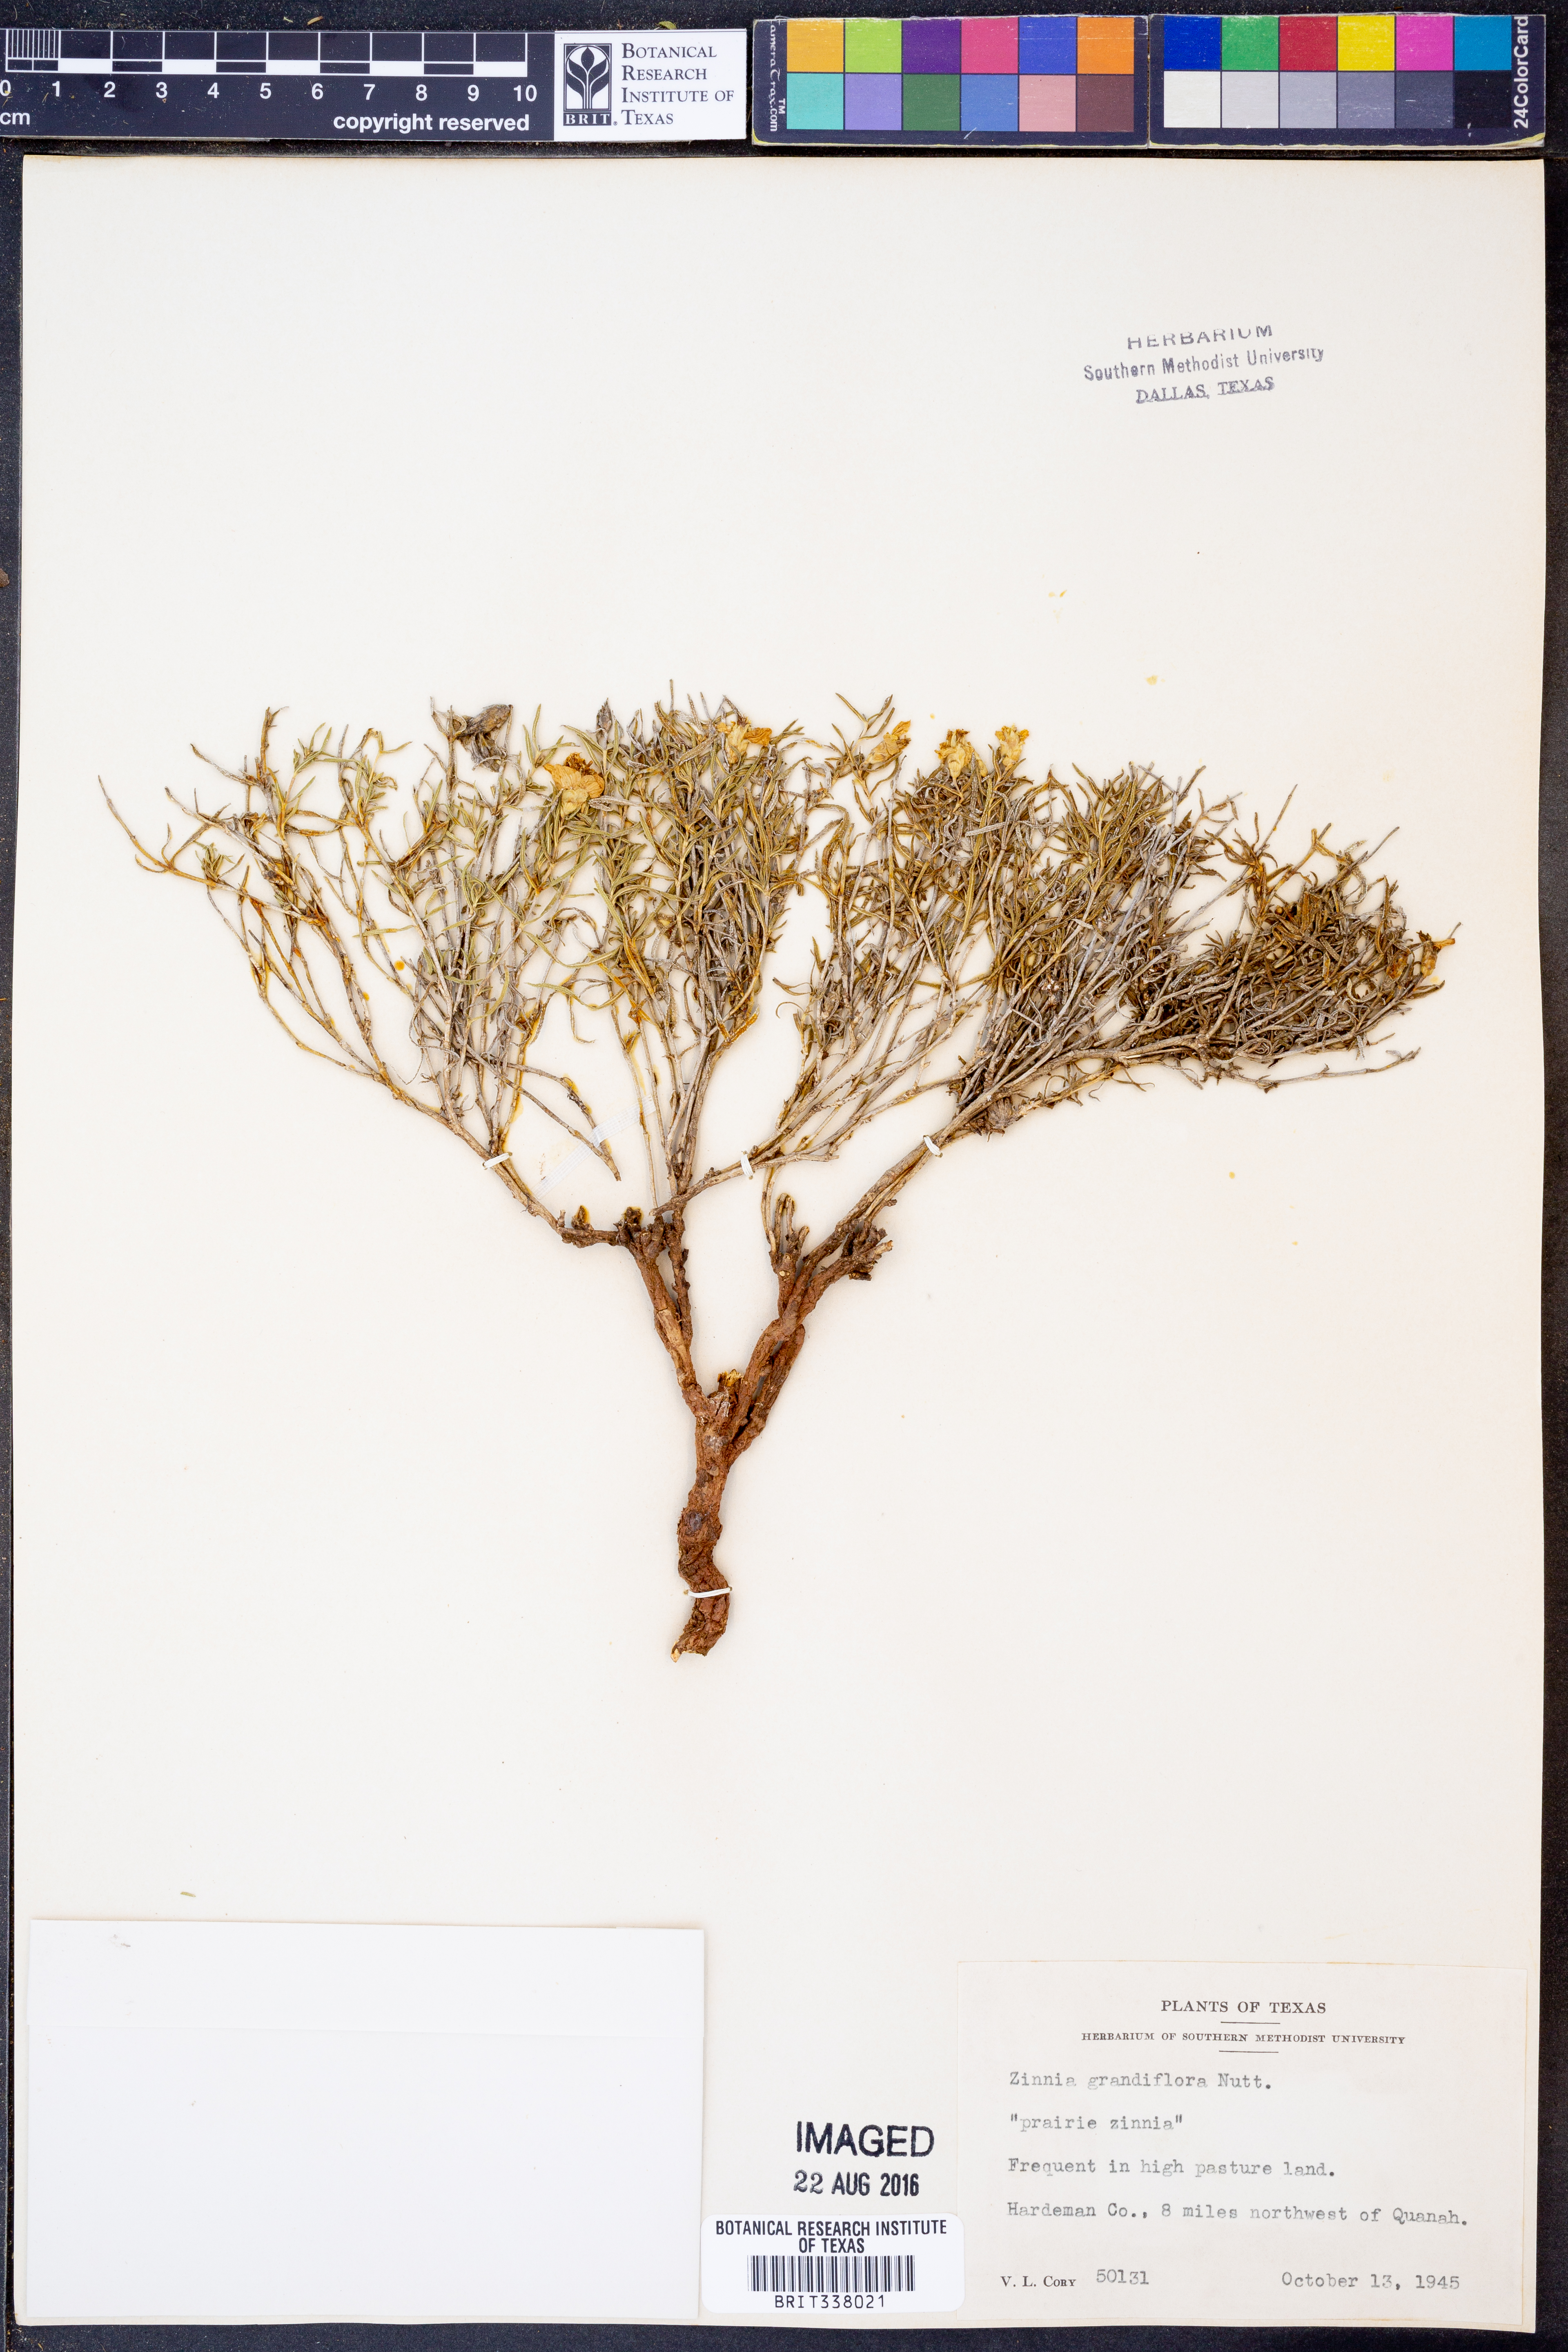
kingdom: Plantae
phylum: Tracheophyta
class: Magnoliopsida
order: Asterales
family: Asteraceae
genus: Zinnia
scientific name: Zinnia grandiflora
